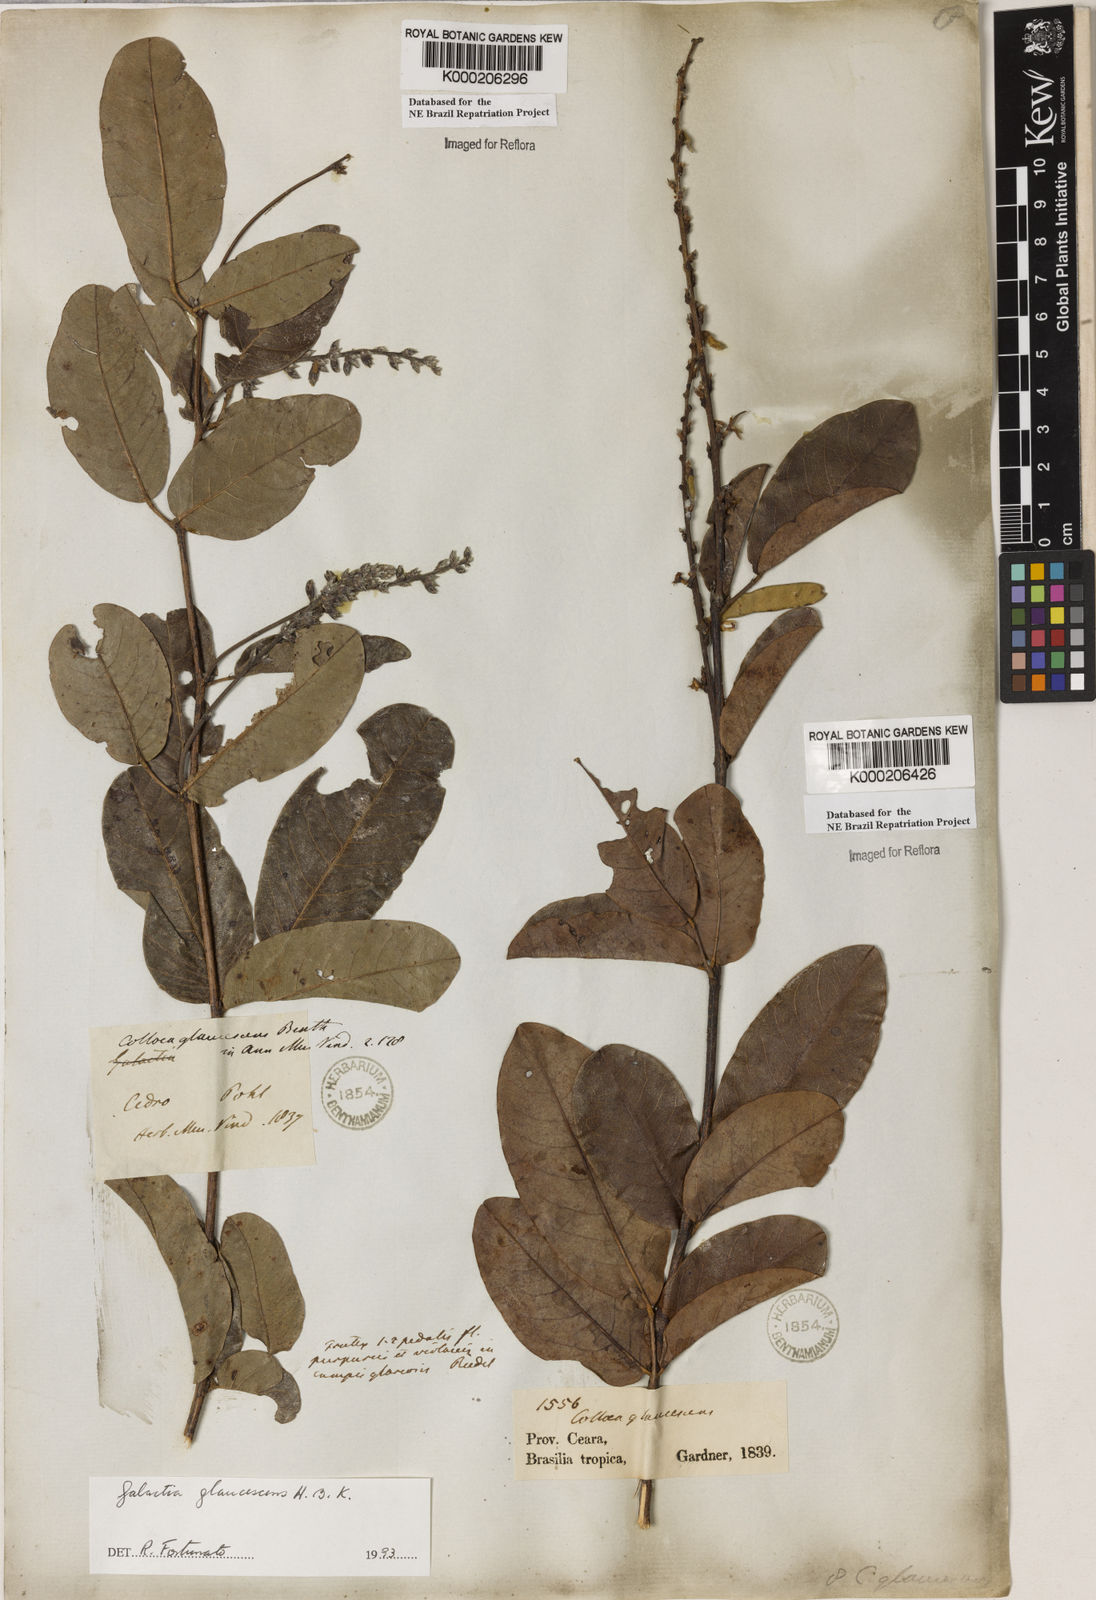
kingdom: Plantae
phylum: Tracheophyta
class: Magnoliopsida
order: Fabales
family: Fabaceae
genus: Galactia
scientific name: Galactia glaucescens
